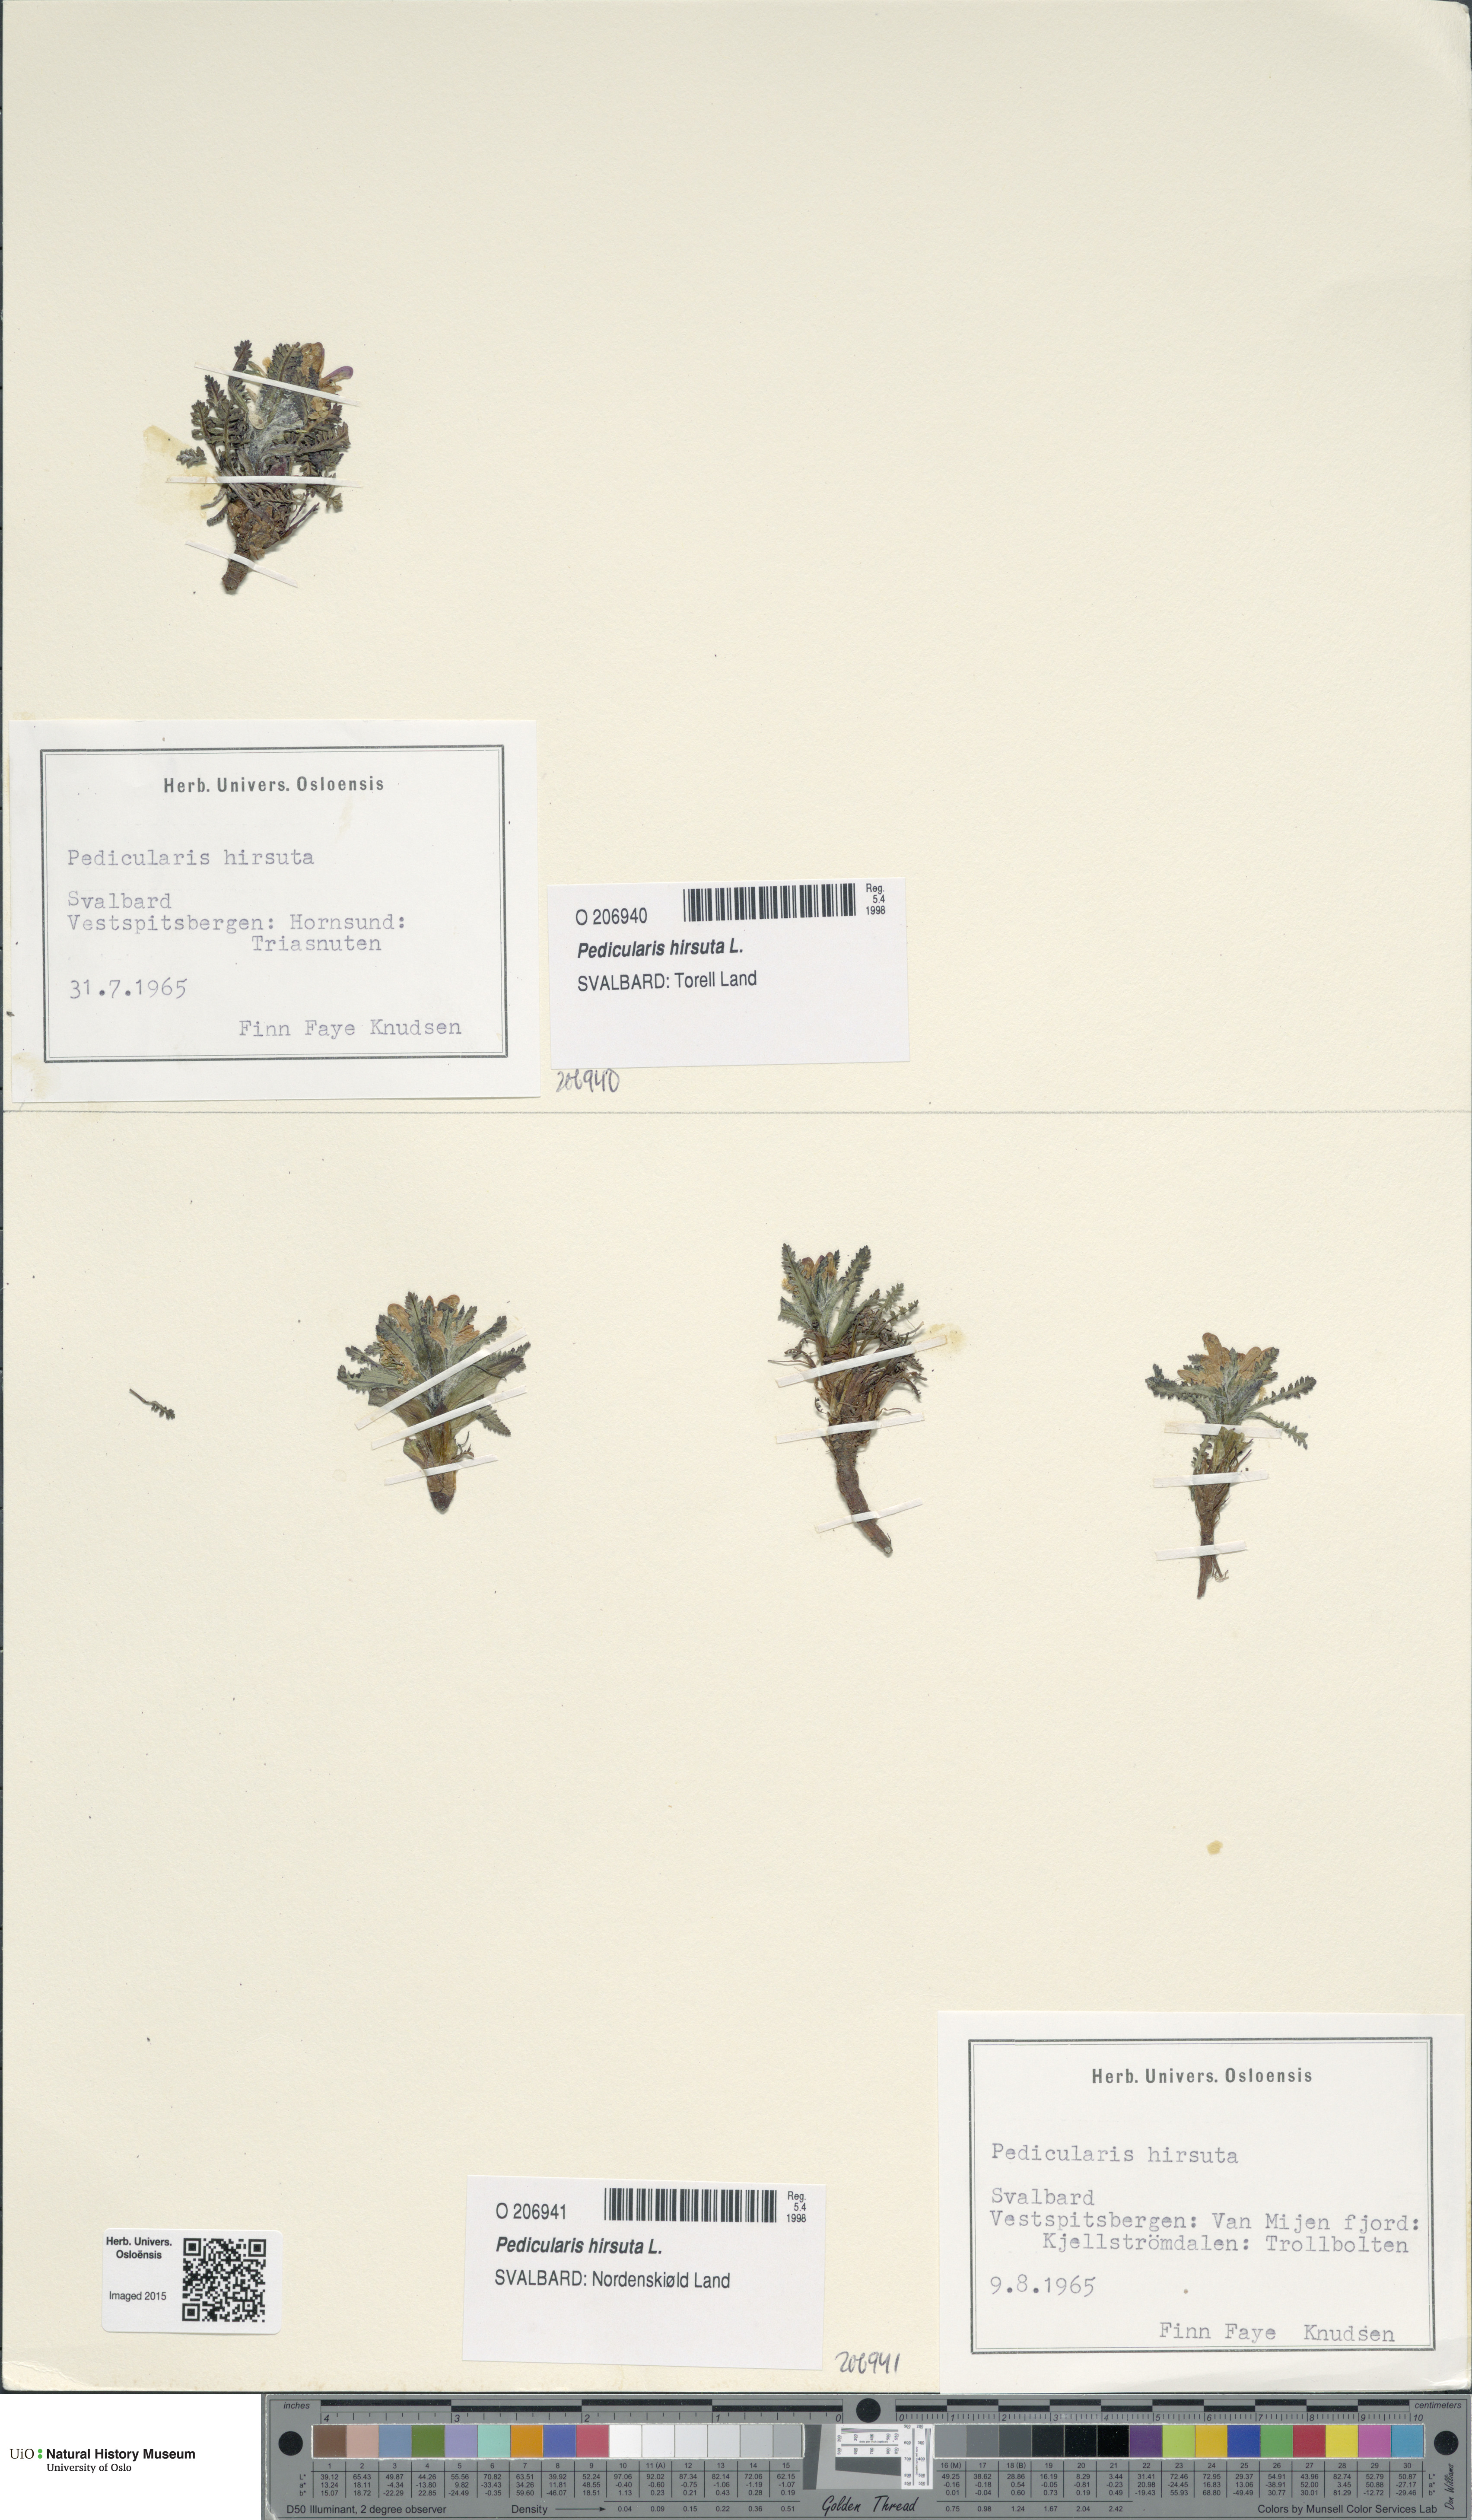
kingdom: Plantae
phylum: Tracheophyta
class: Magnoliopsida
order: Lamiales
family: Orobanchaceae
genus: Pedicularis
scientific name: Pedicularis hirsuta
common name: Hairy lousewort
